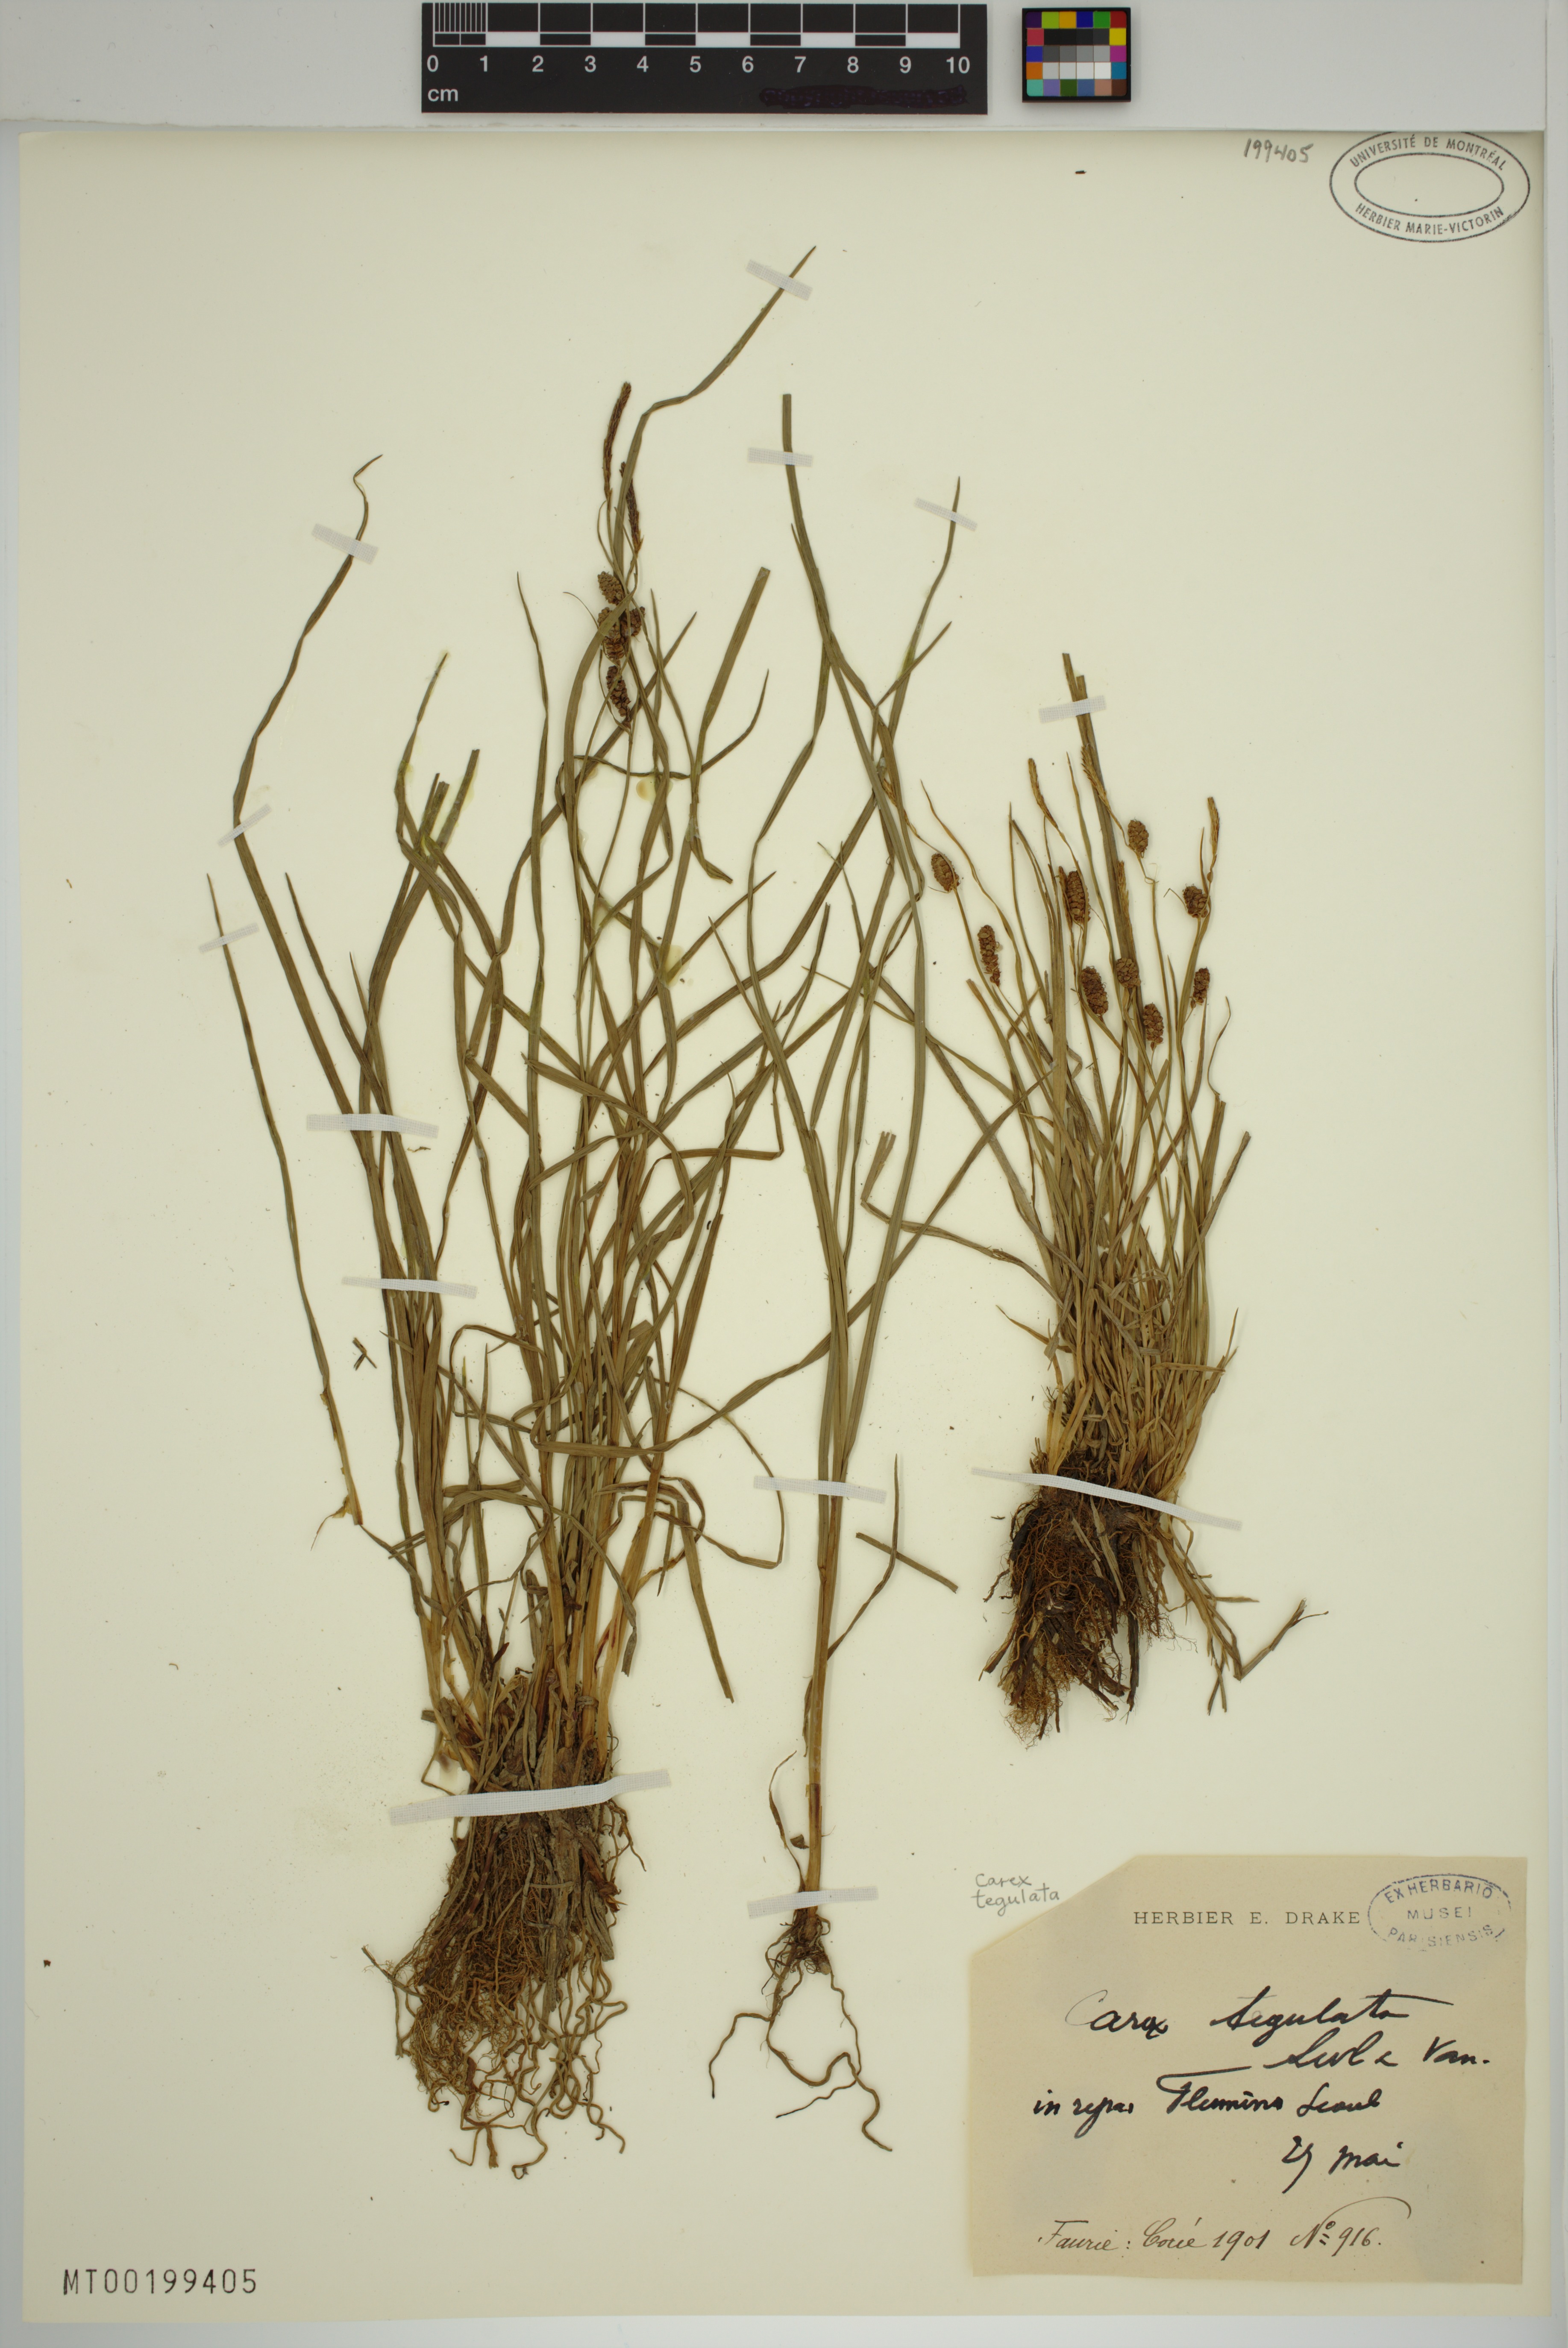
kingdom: Plantae
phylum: Tracheophyta
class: Liliopsida
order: Poales
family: Cyperaceae
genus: Carex
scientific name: Carex tegulata
